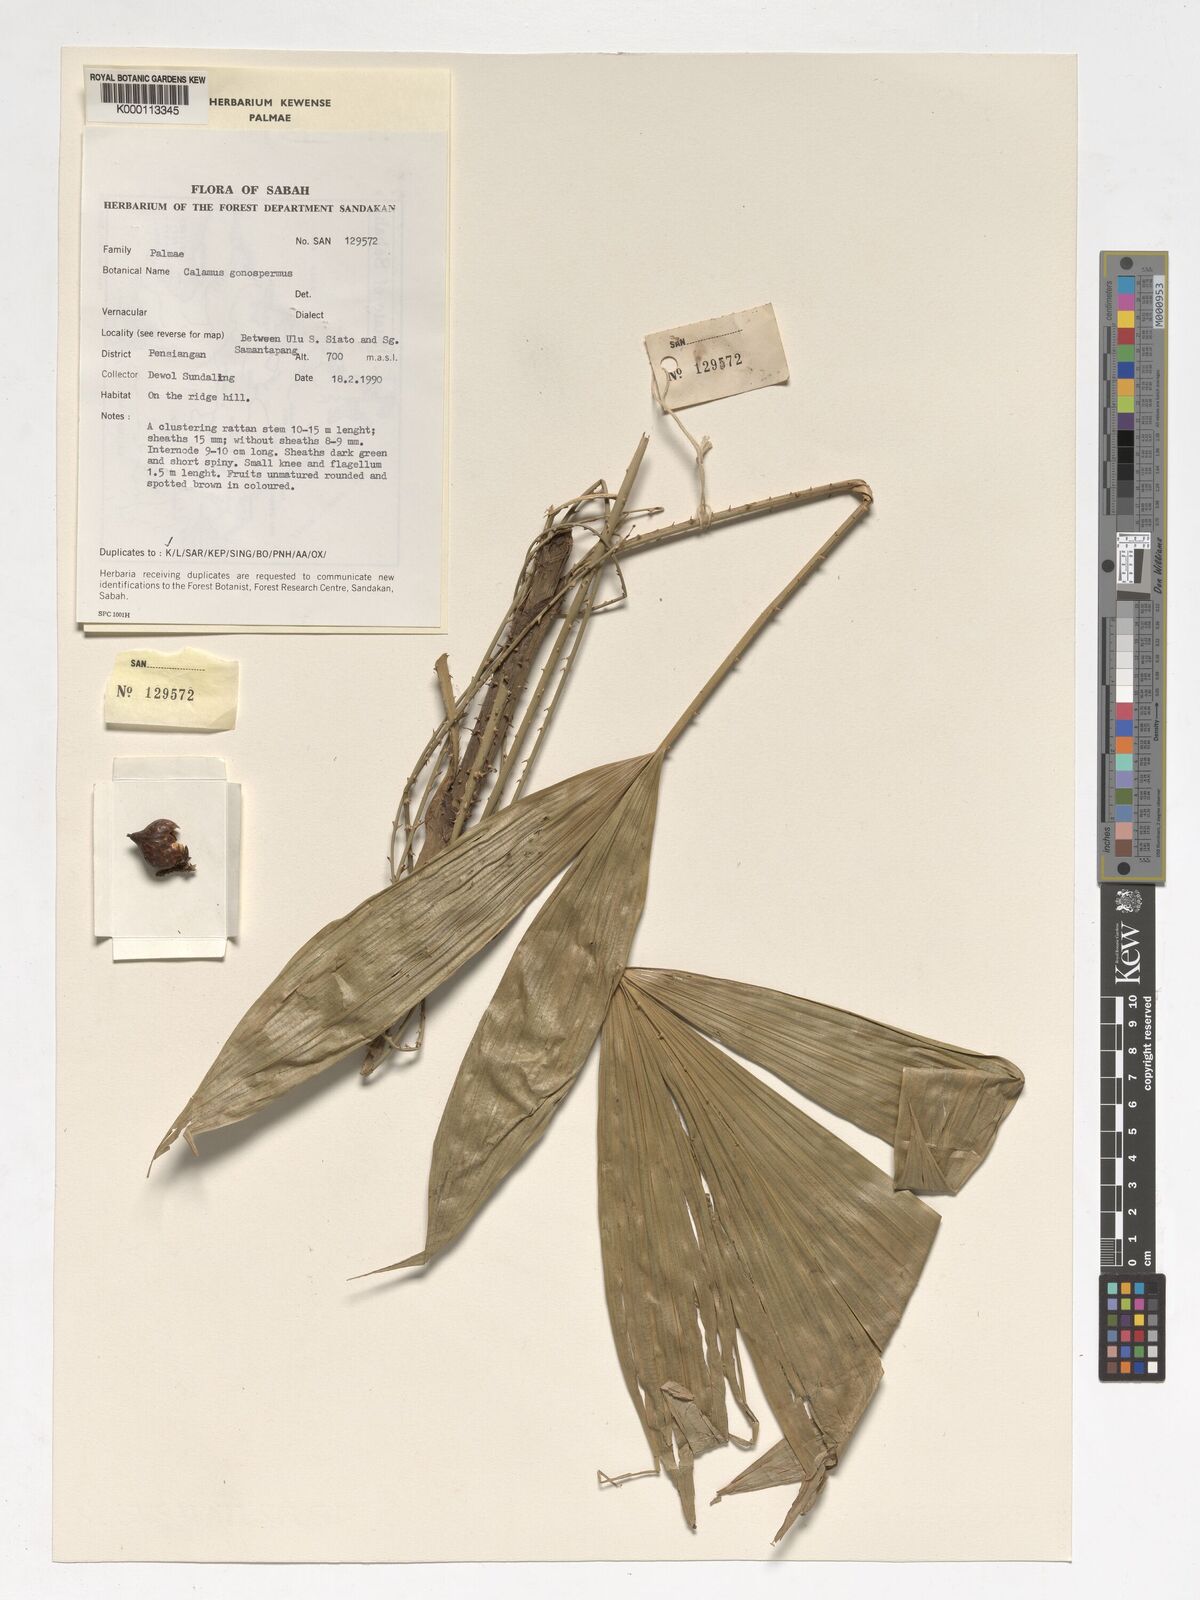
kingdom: Plantae
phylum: Tracheophyta
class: Liliopsida
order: Arecales
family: Arecaceae
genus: Calamus
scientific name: Calamus gonospermus
